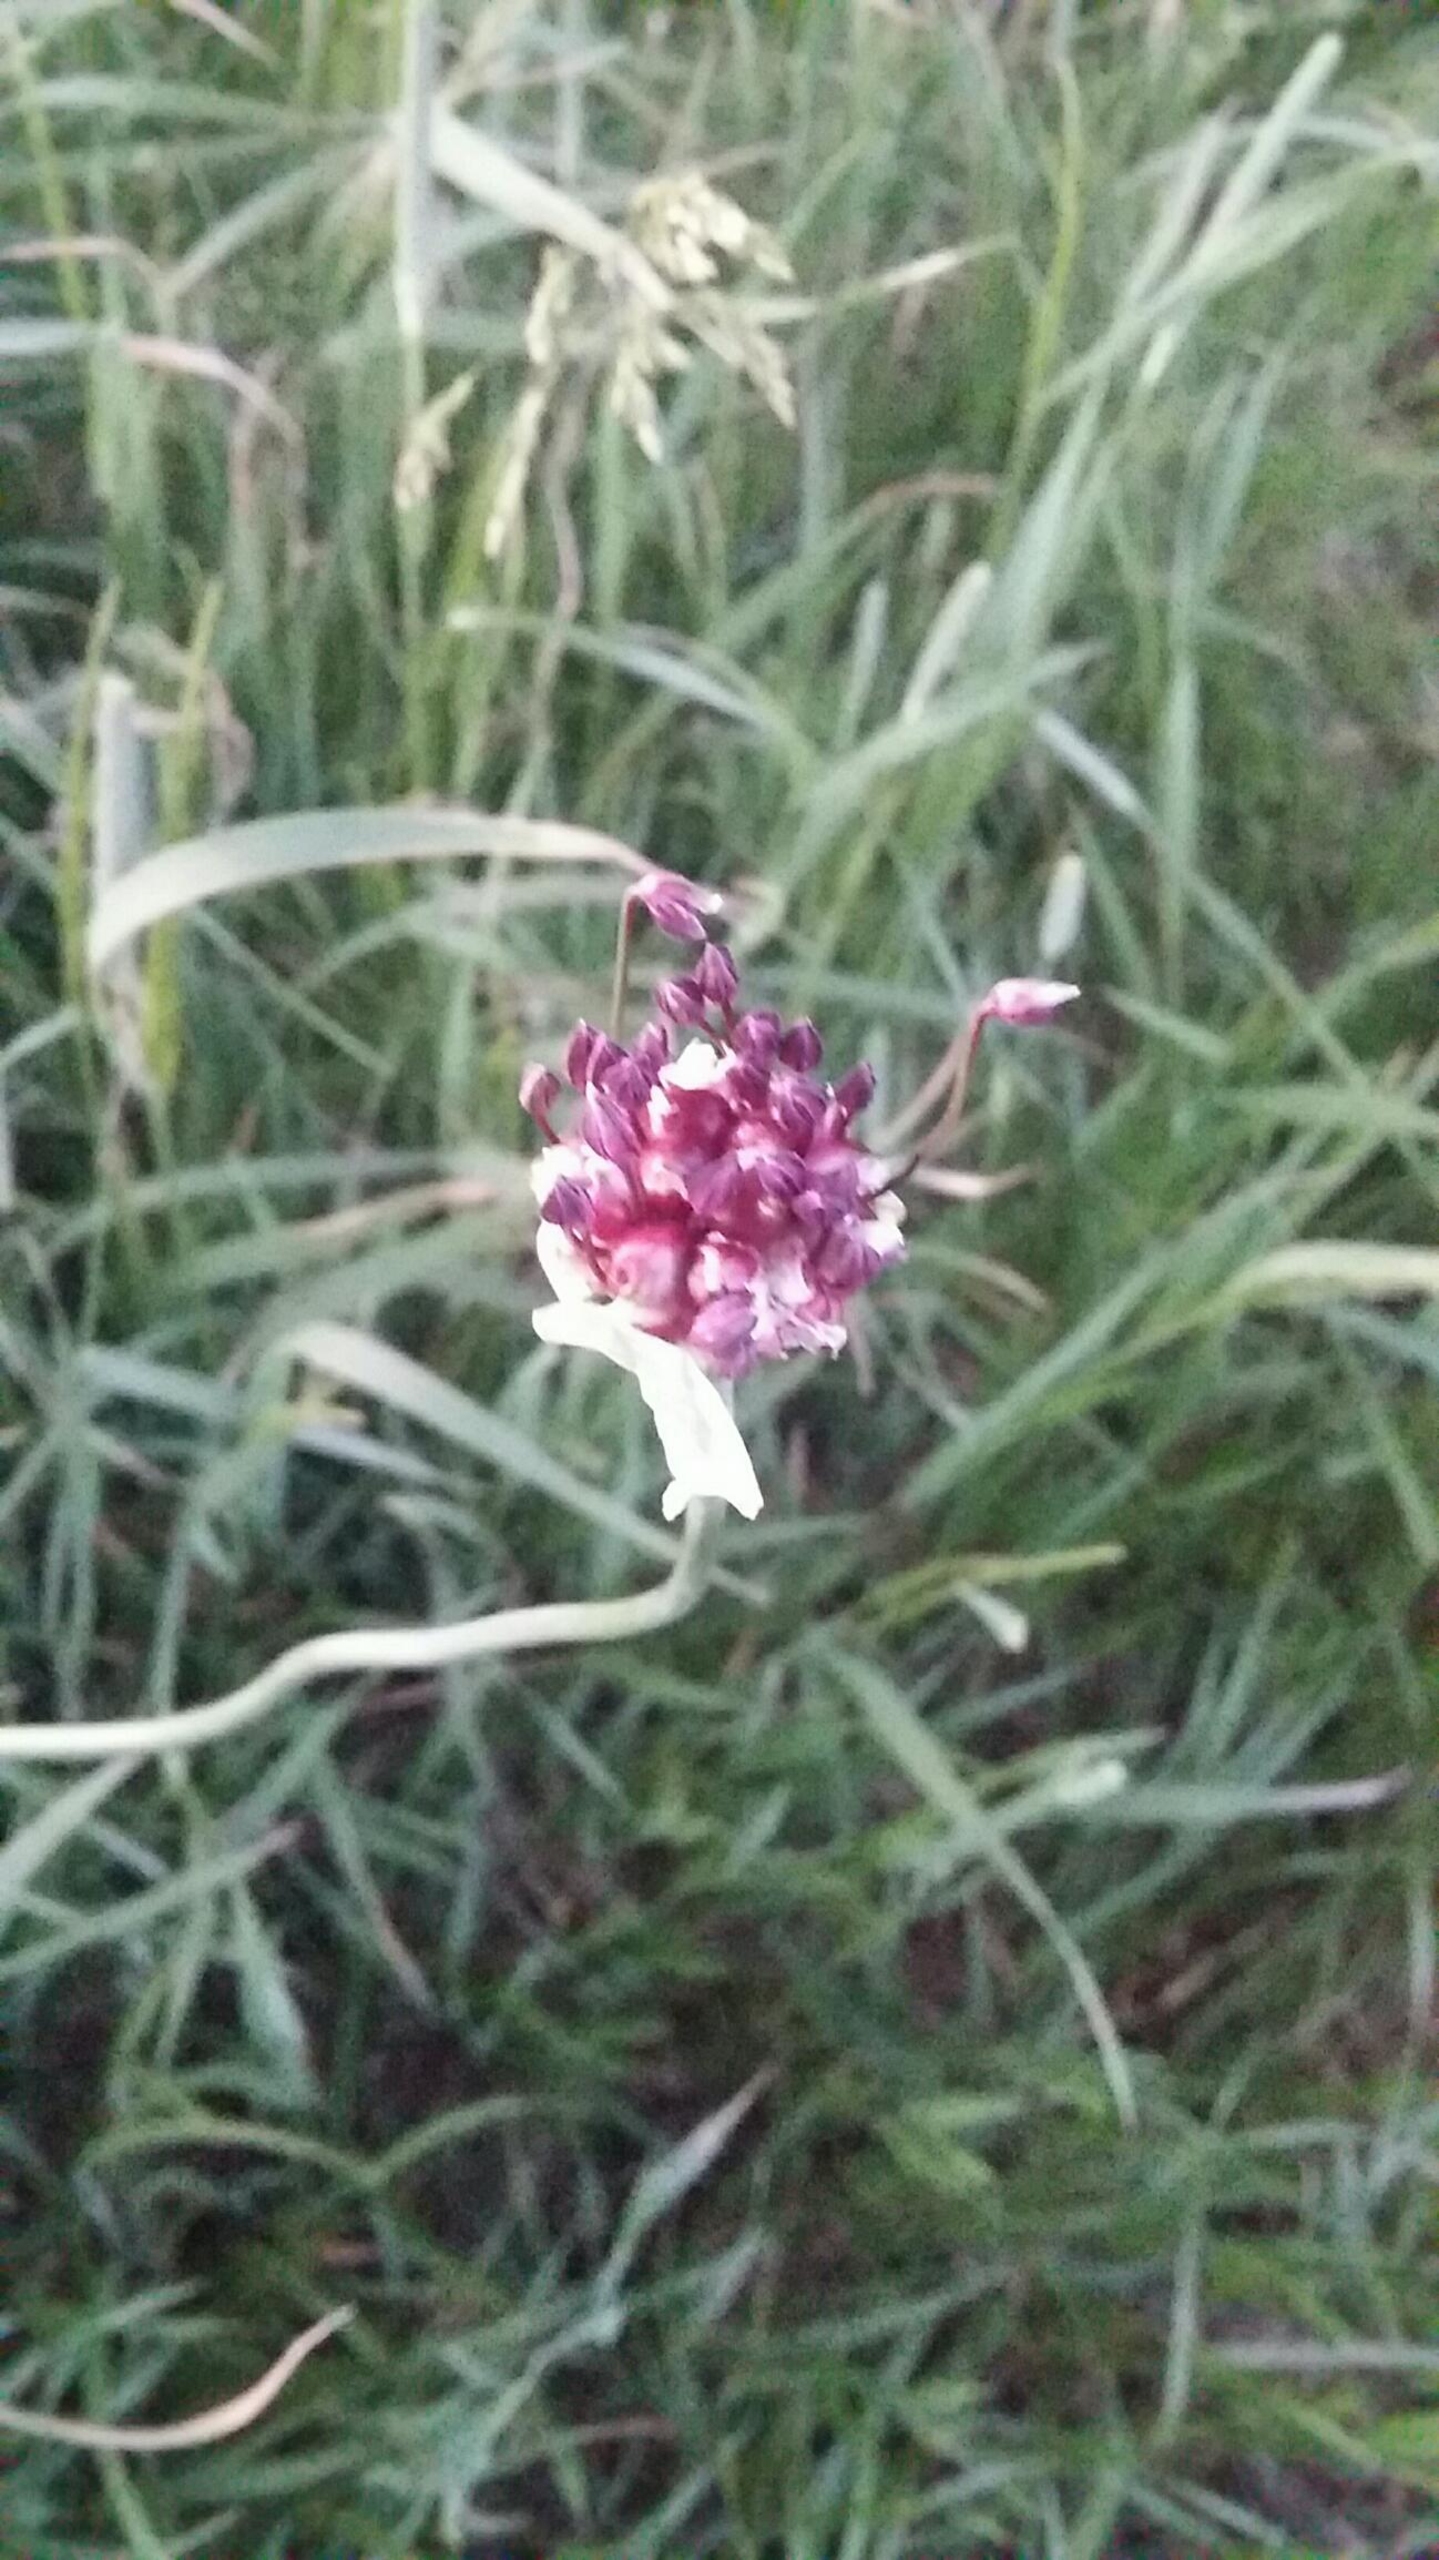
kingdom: Plantae
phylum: Tracheophyta
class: Liliopsida
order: Asparagales
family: Amaryllidaceae
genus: Allium
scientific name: Allium scorodoprasum
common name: Skov-løg
